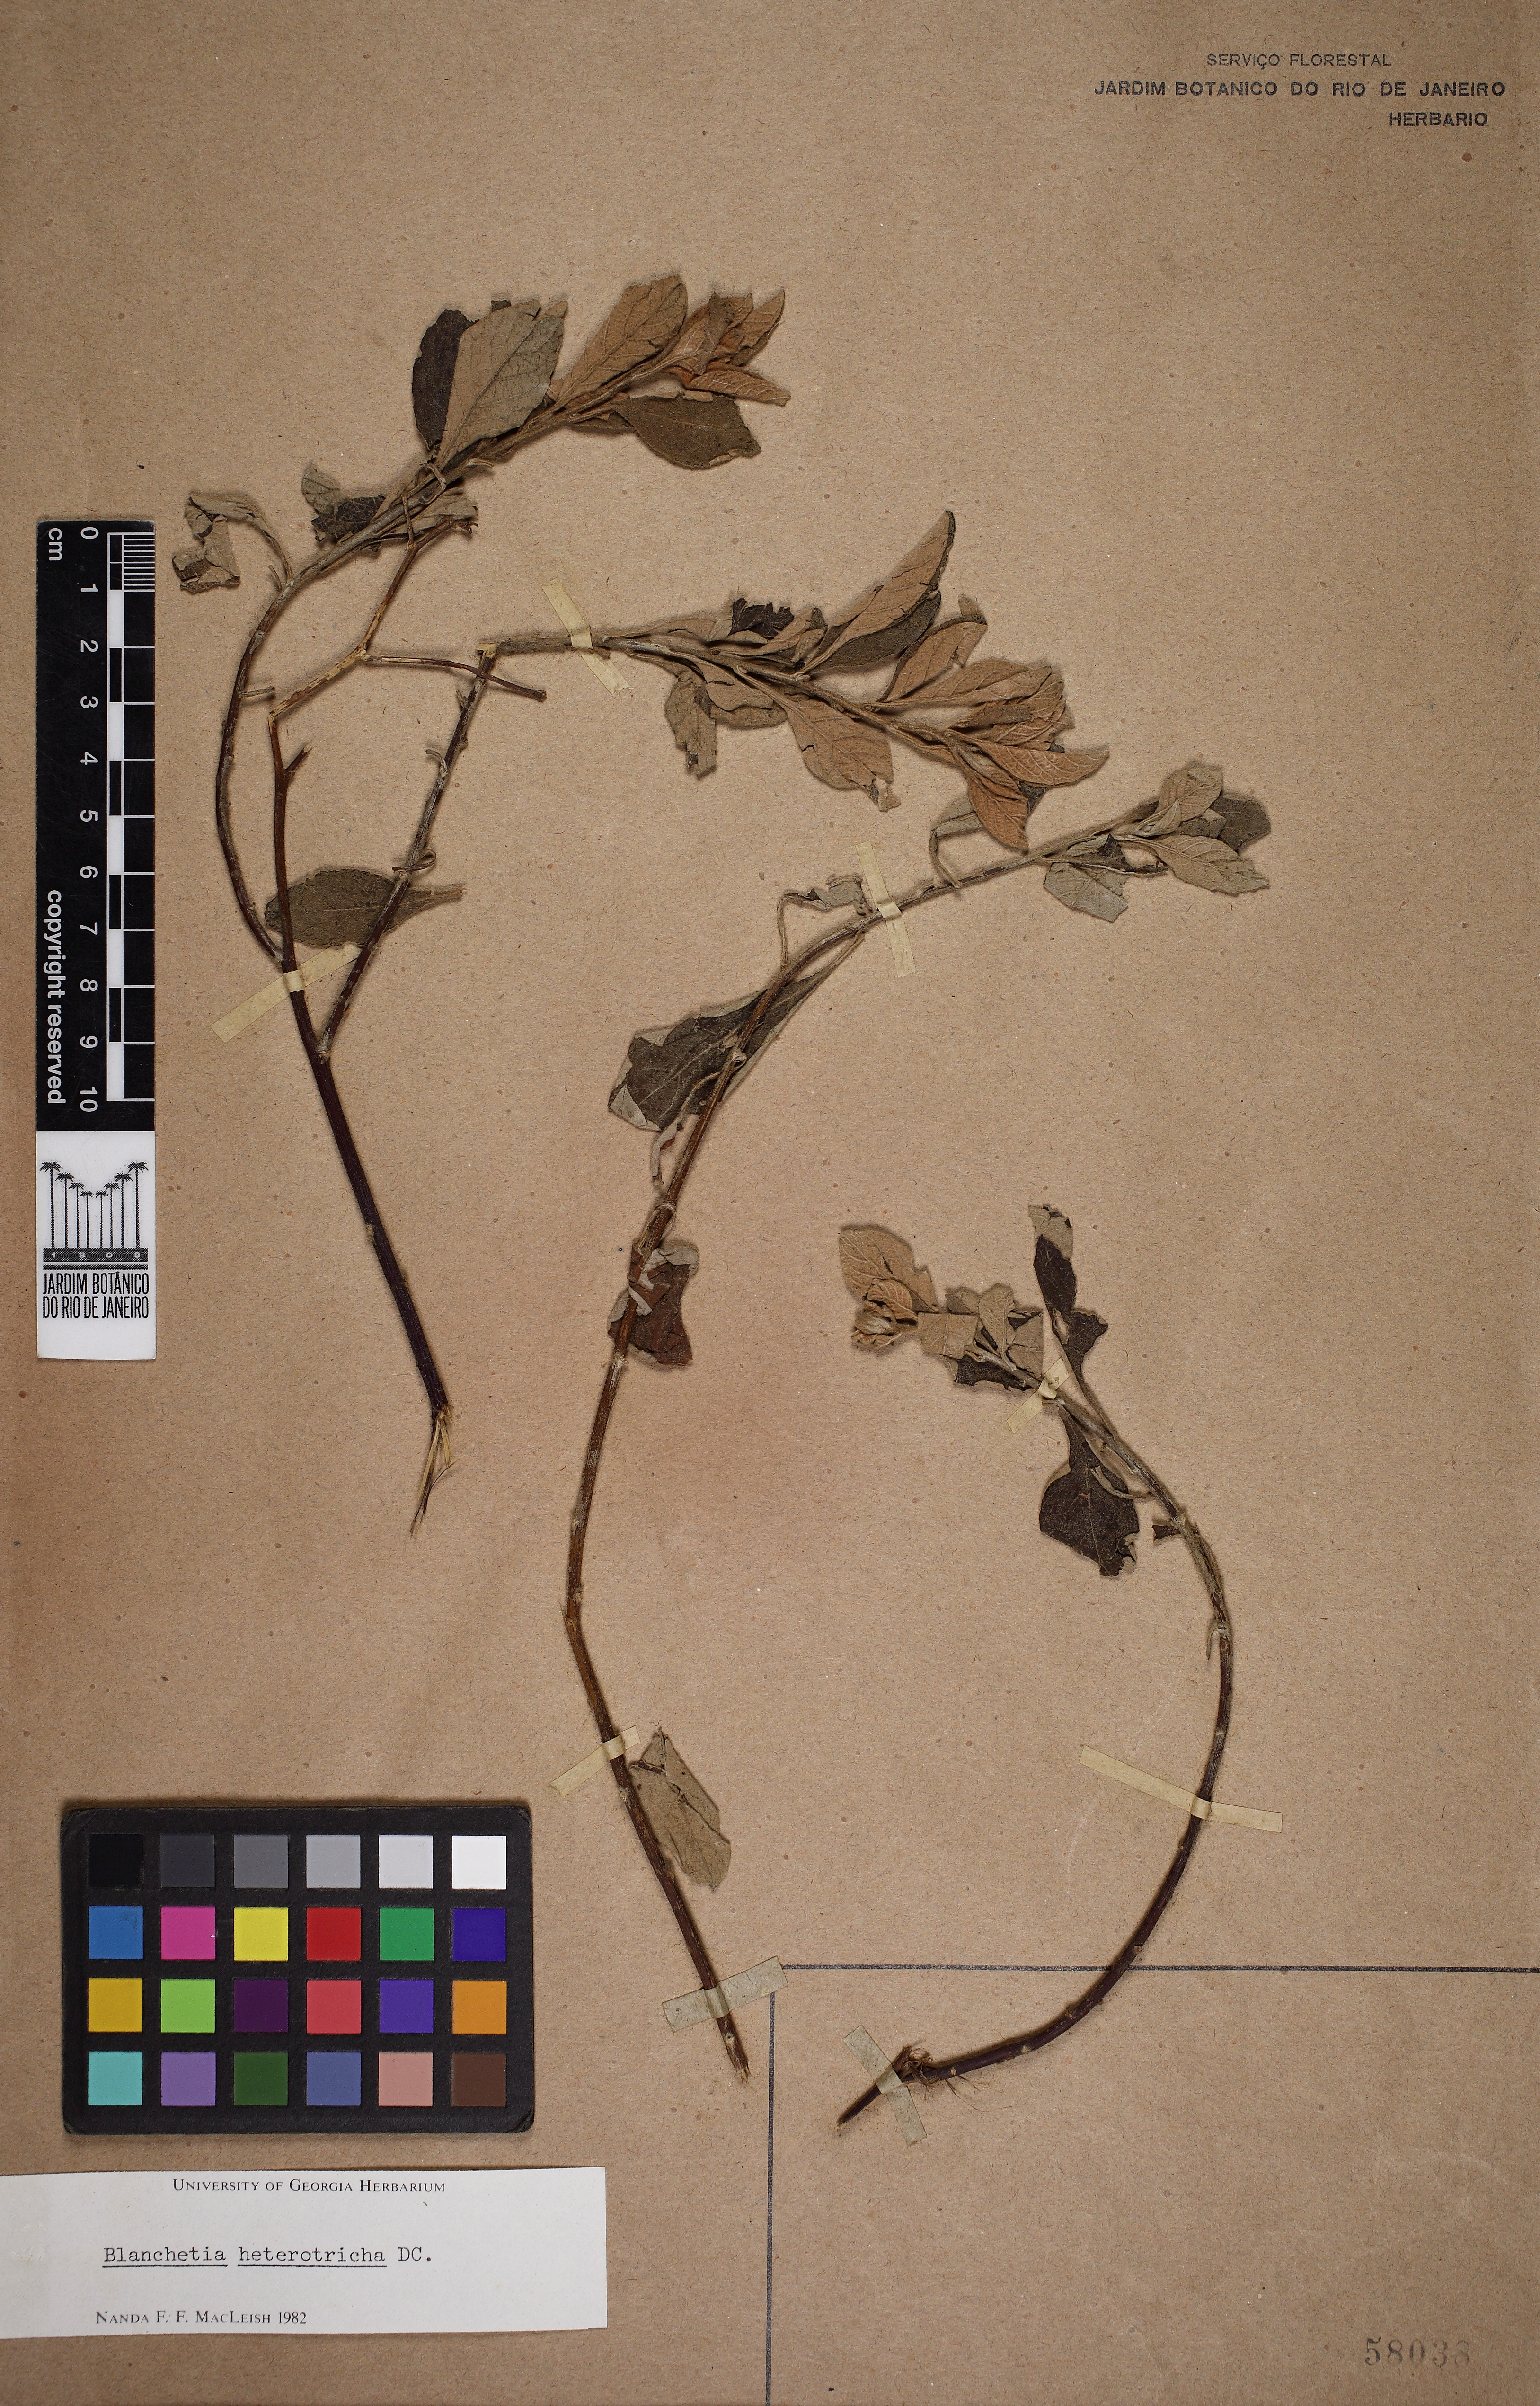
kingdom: Plantae
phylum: Tracheophyta
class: Magnoliopsida
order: Asterales
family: Asteraceae
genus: Blanchetia
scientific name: Blanchetia heterotricha
